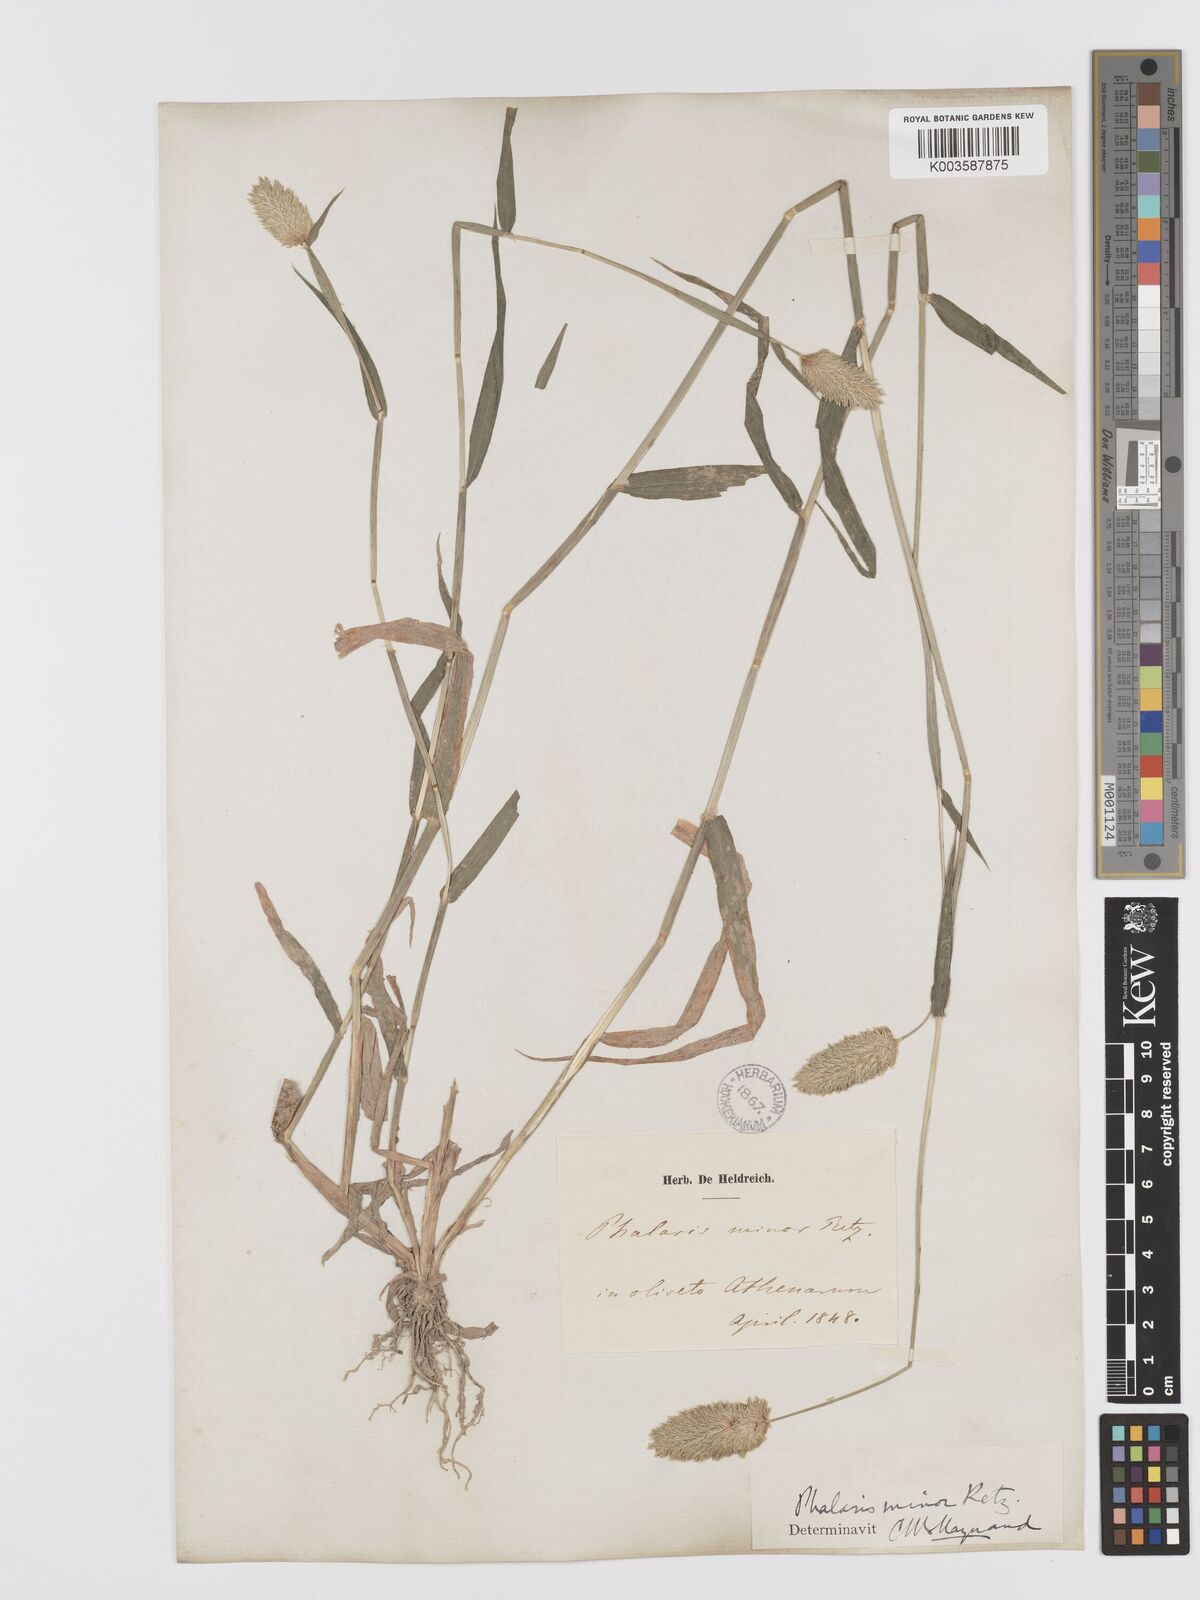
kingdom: Plantae
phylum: Tracheophyta
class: Liliopsida
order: Poales
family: Poaceae
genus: Phalaris
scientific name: Phalaris minor
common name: Littleseed canarygrass
